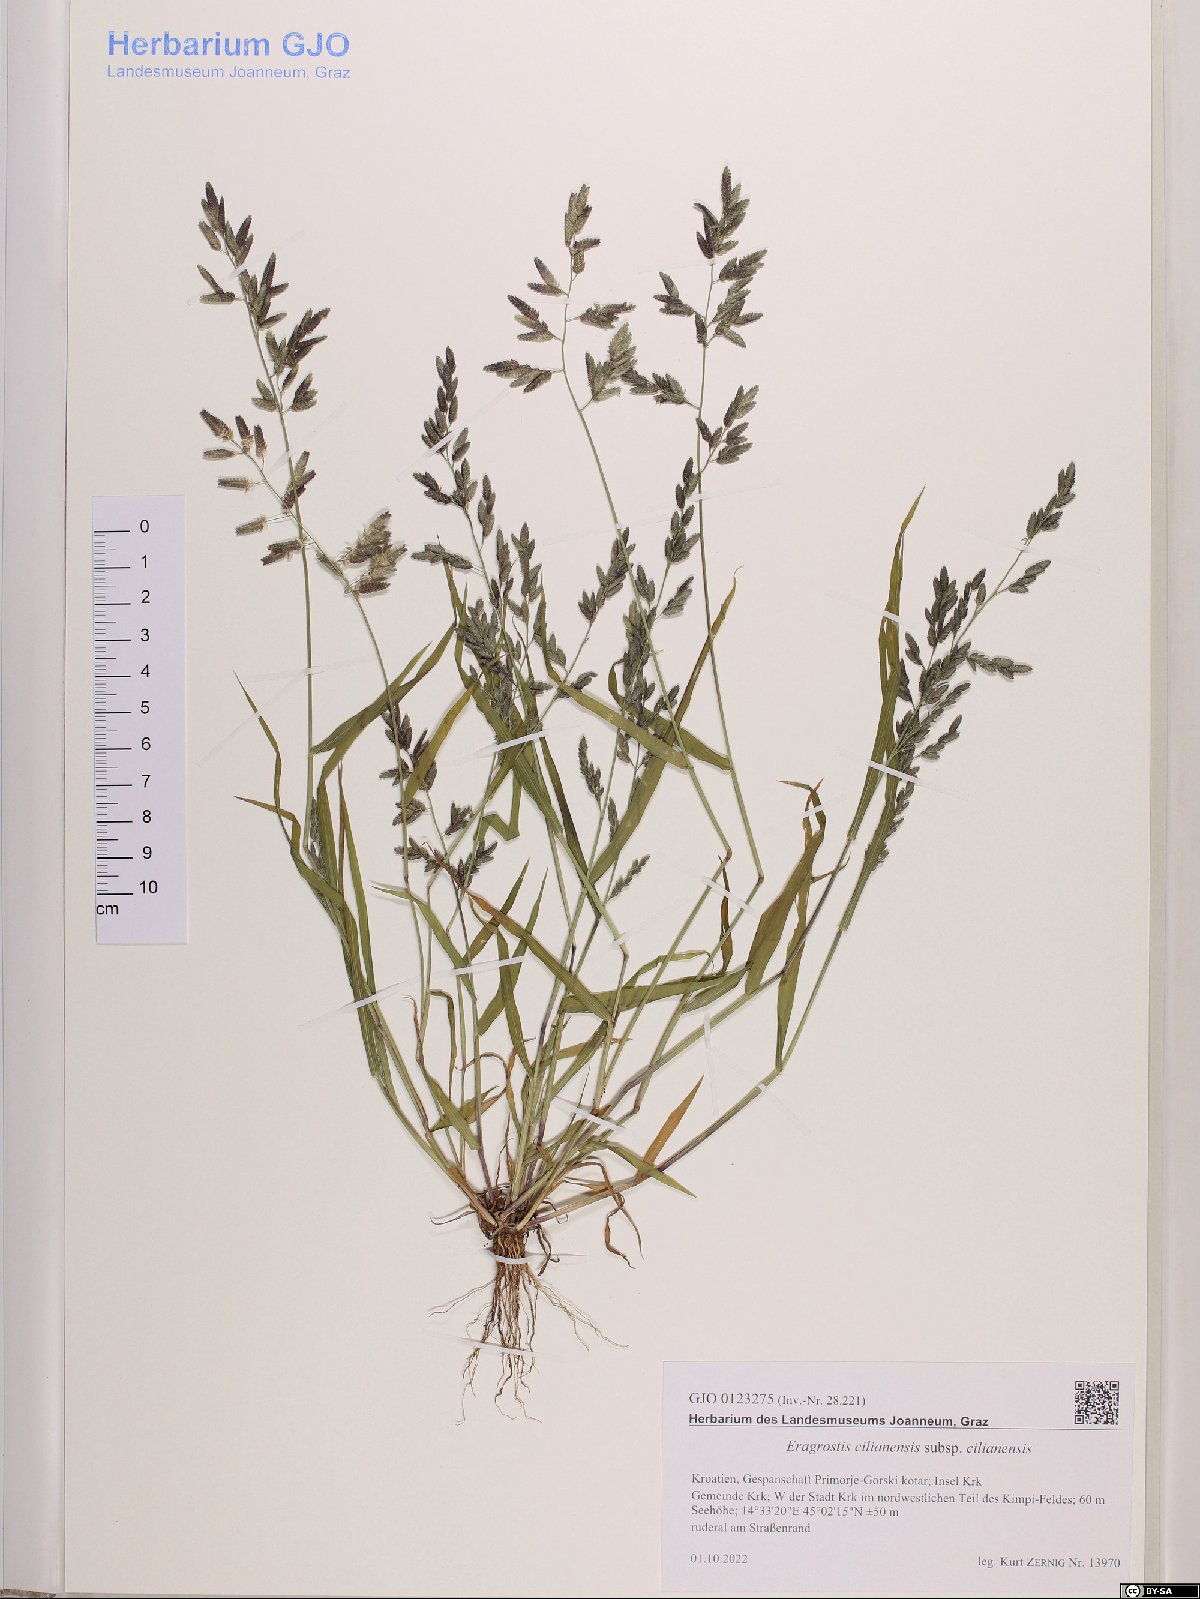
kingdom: Plantae
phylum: Tracheophyta
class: Liliopsida
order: Poales
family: Poaceae
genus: Eragrostis
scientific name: Eragrostis cilianensis
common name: Stinkgrass
